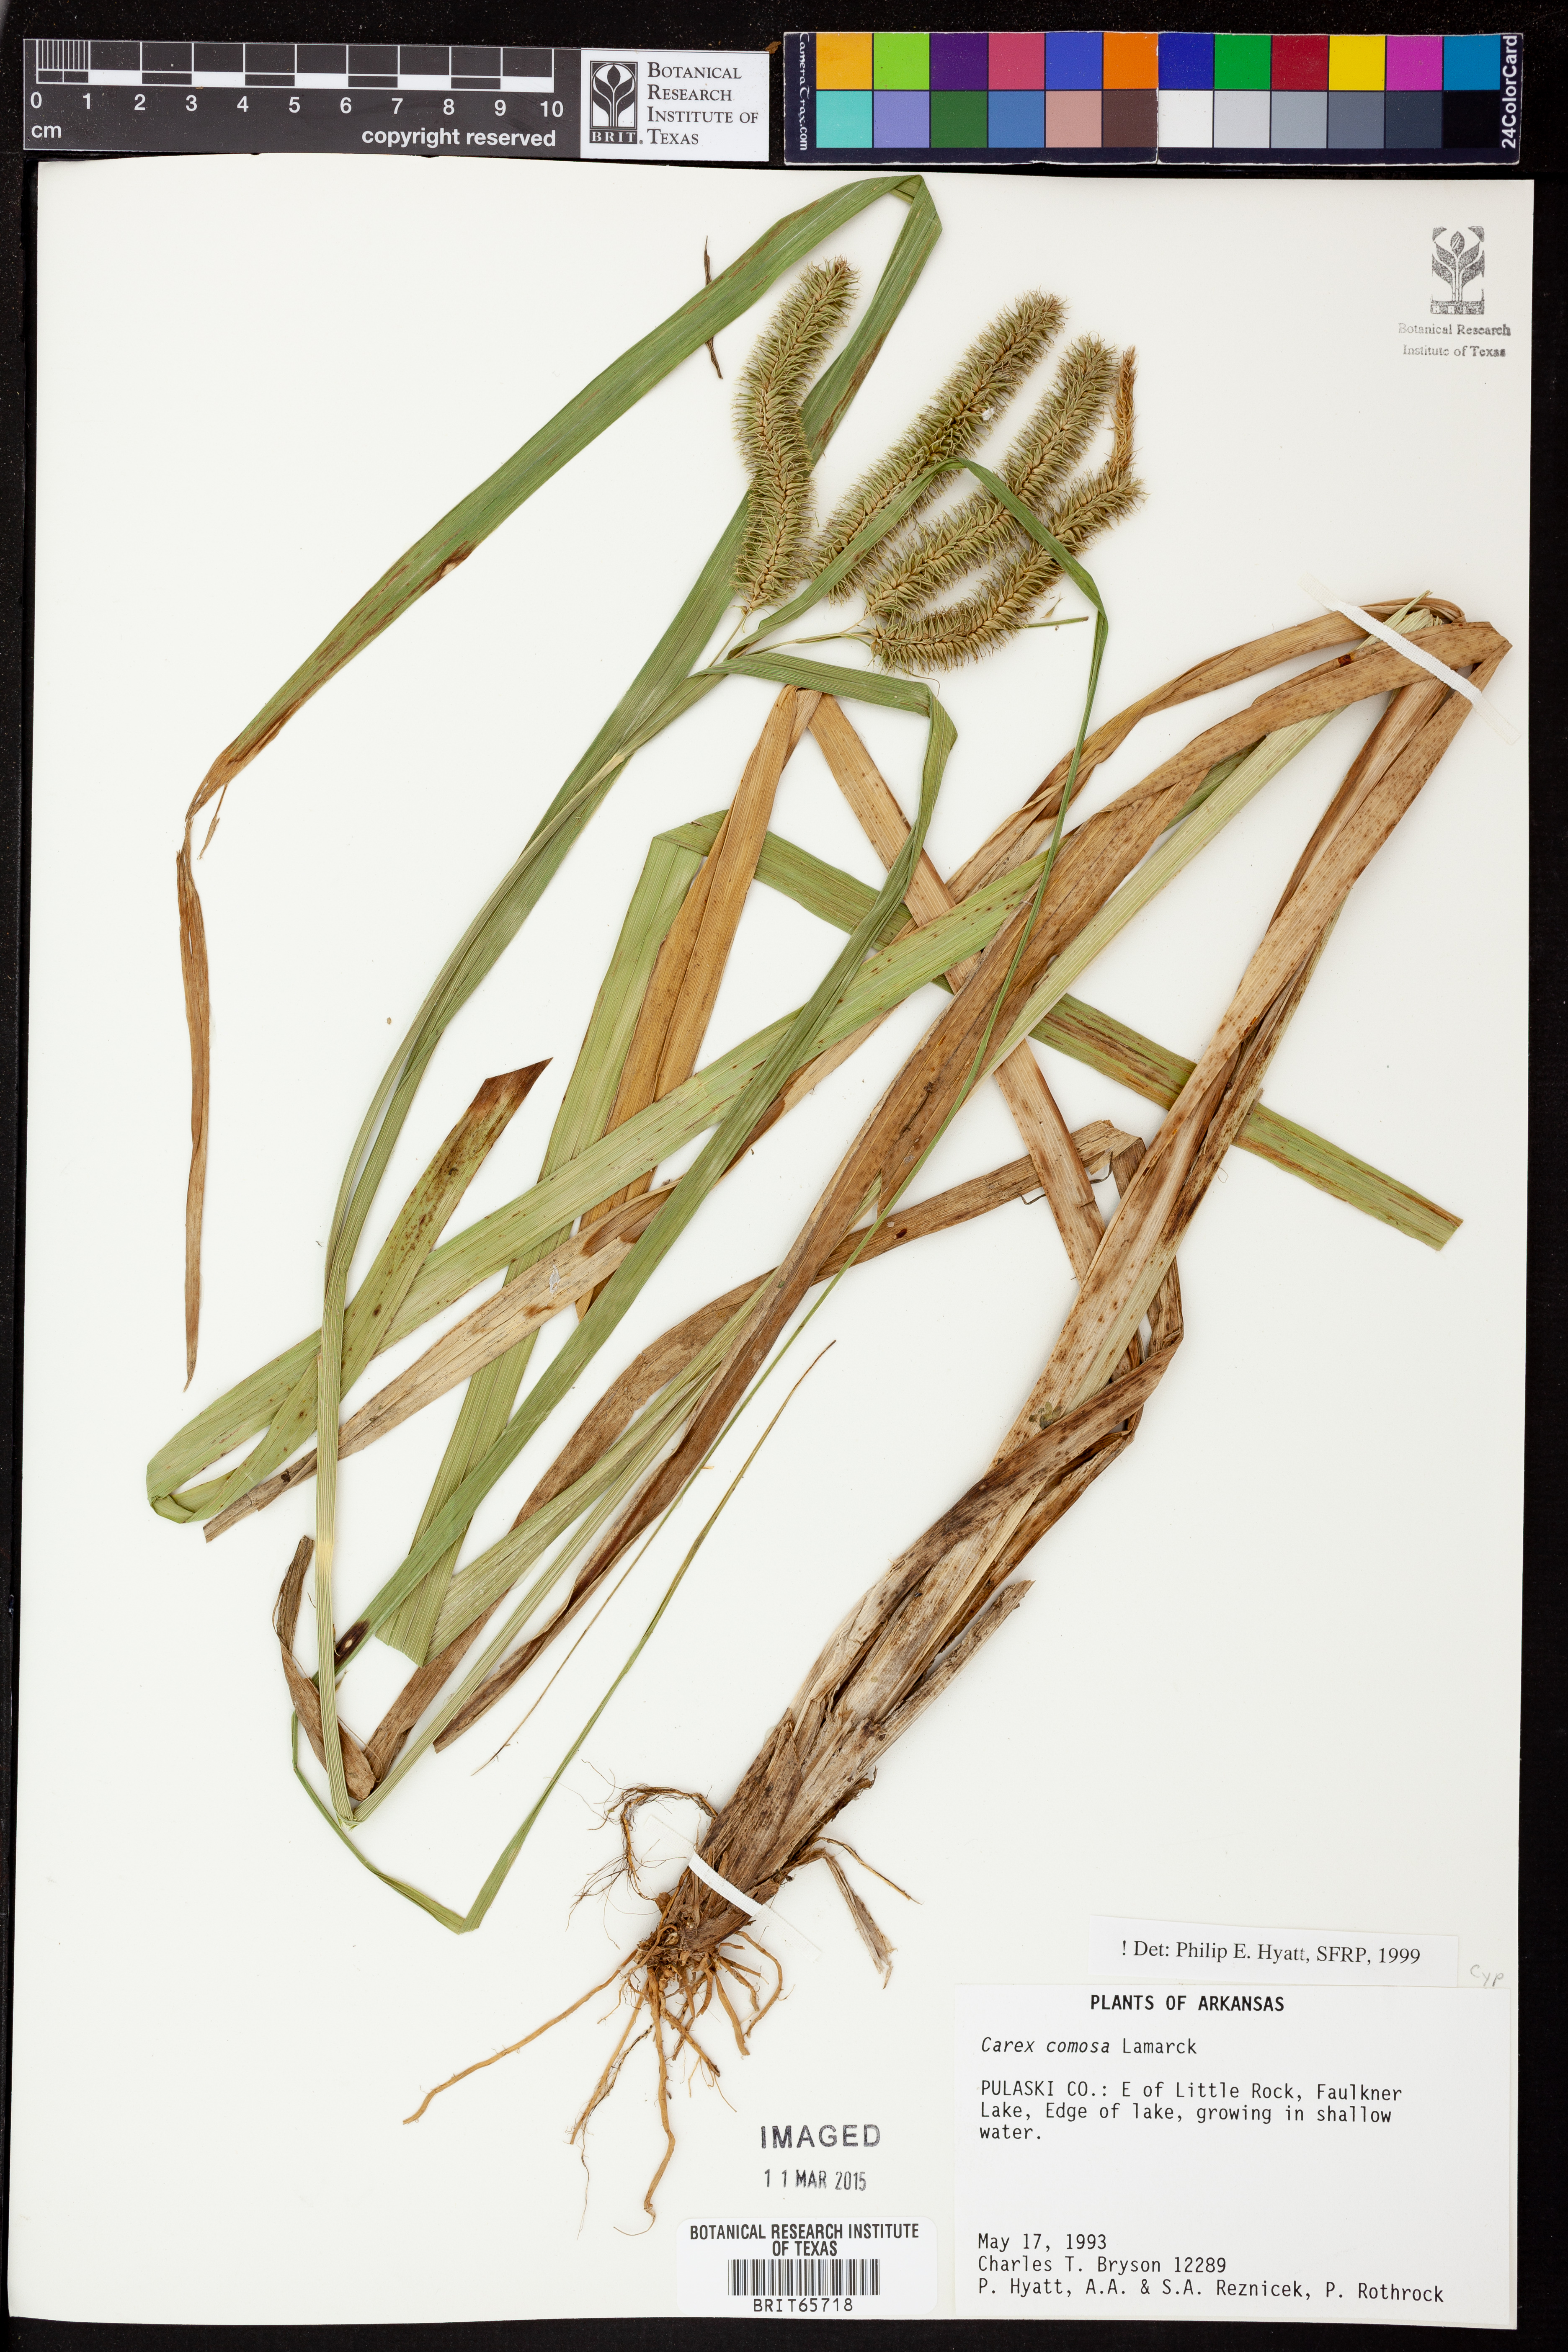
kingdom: Plantae
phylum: Tracheophyta
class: Liliopsida
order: Poales
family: Cyperaceae
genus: Carex
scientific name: Carex comosa
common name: Bristly sedge
